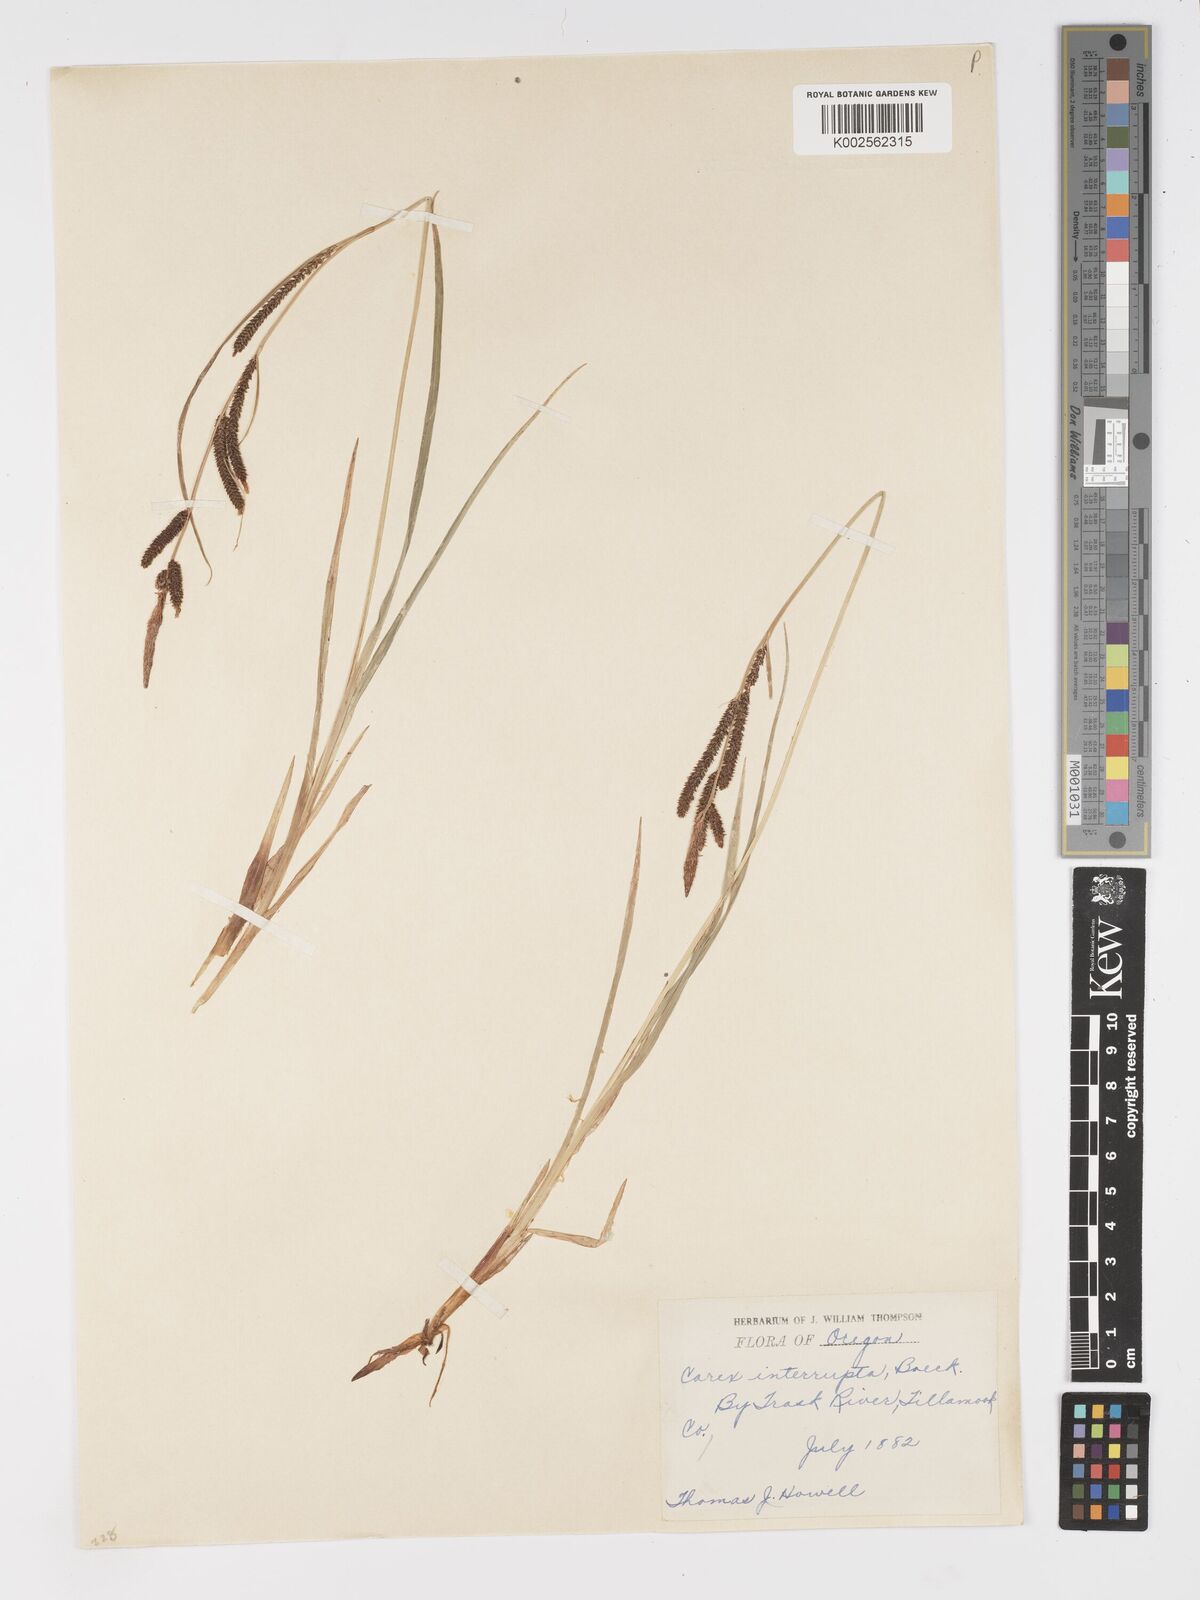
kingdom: Plantae
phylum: Tracheophyta
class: Liliopsida
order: Poales
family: Cyperaceae
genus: Carex
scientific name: Carex interrupta
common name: Green-fruited sedge
